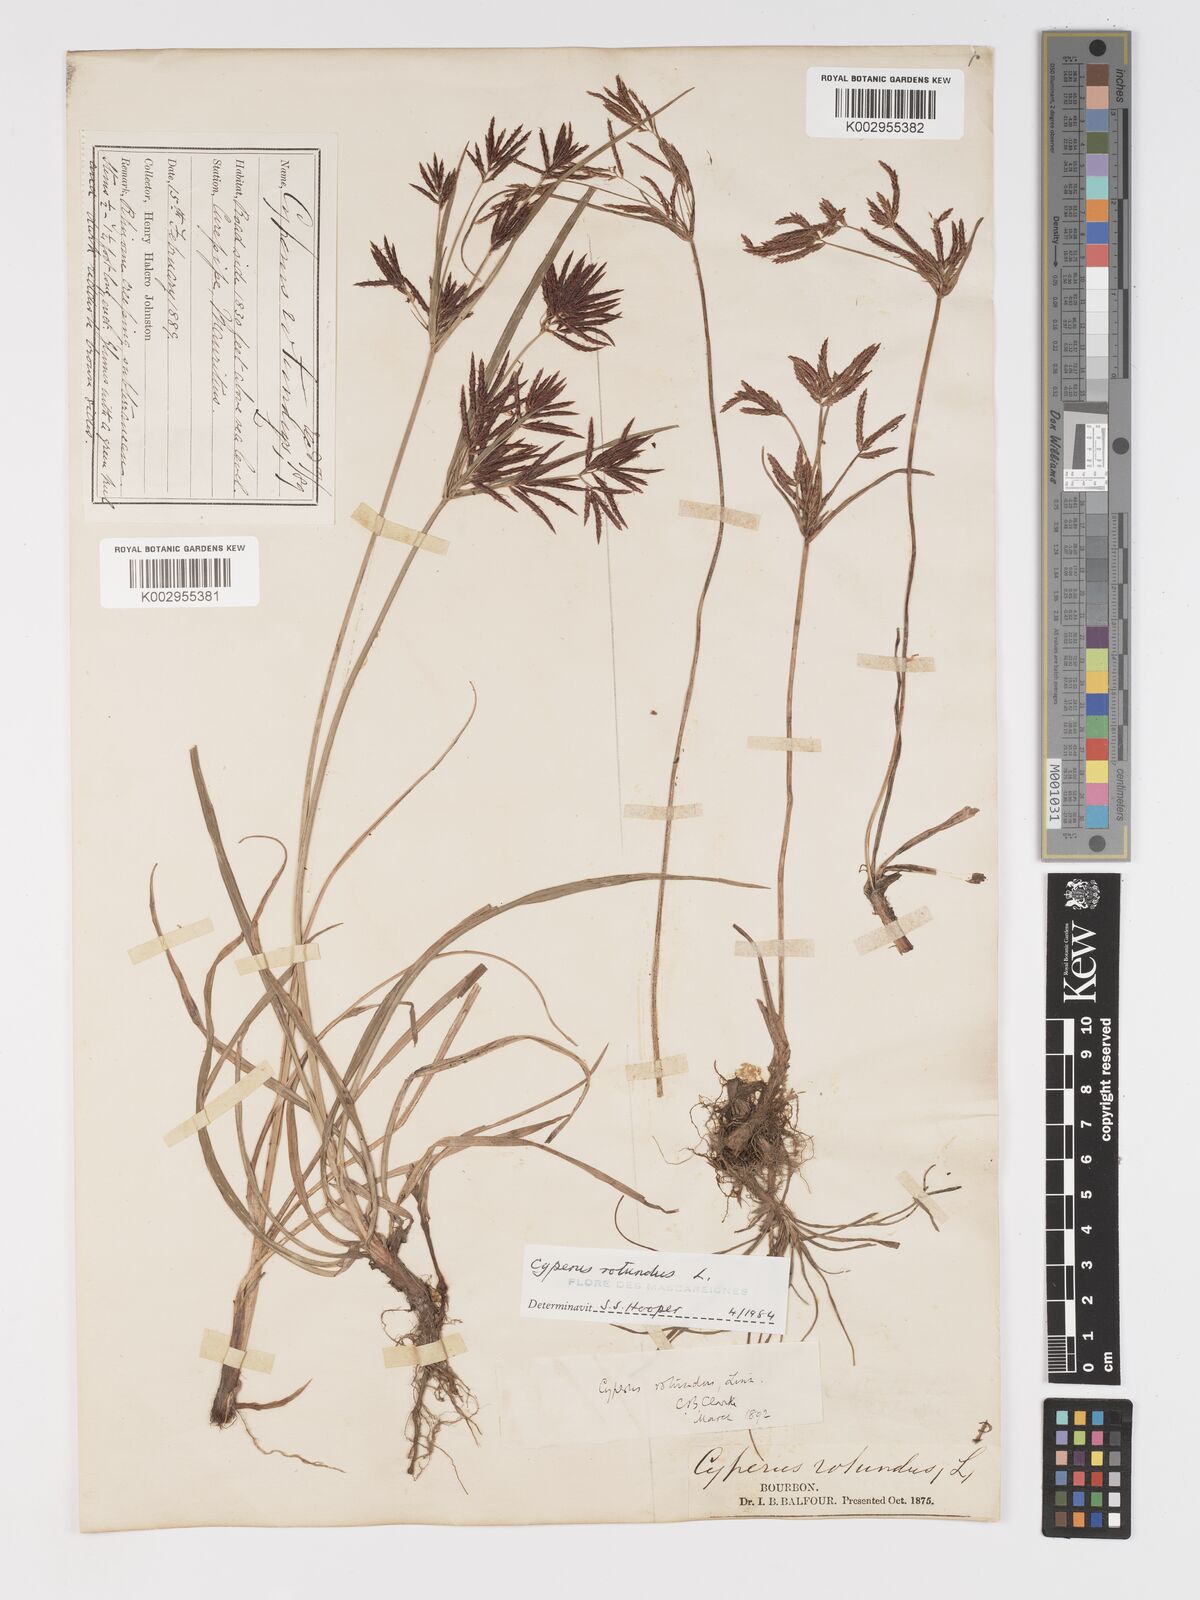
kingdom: Plantae
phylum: Tracheophyta
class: Liliopsida
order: Poales
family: Cyperaceae
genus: Cyperus
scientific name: Cyperus rotundus
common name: Nutgrass
